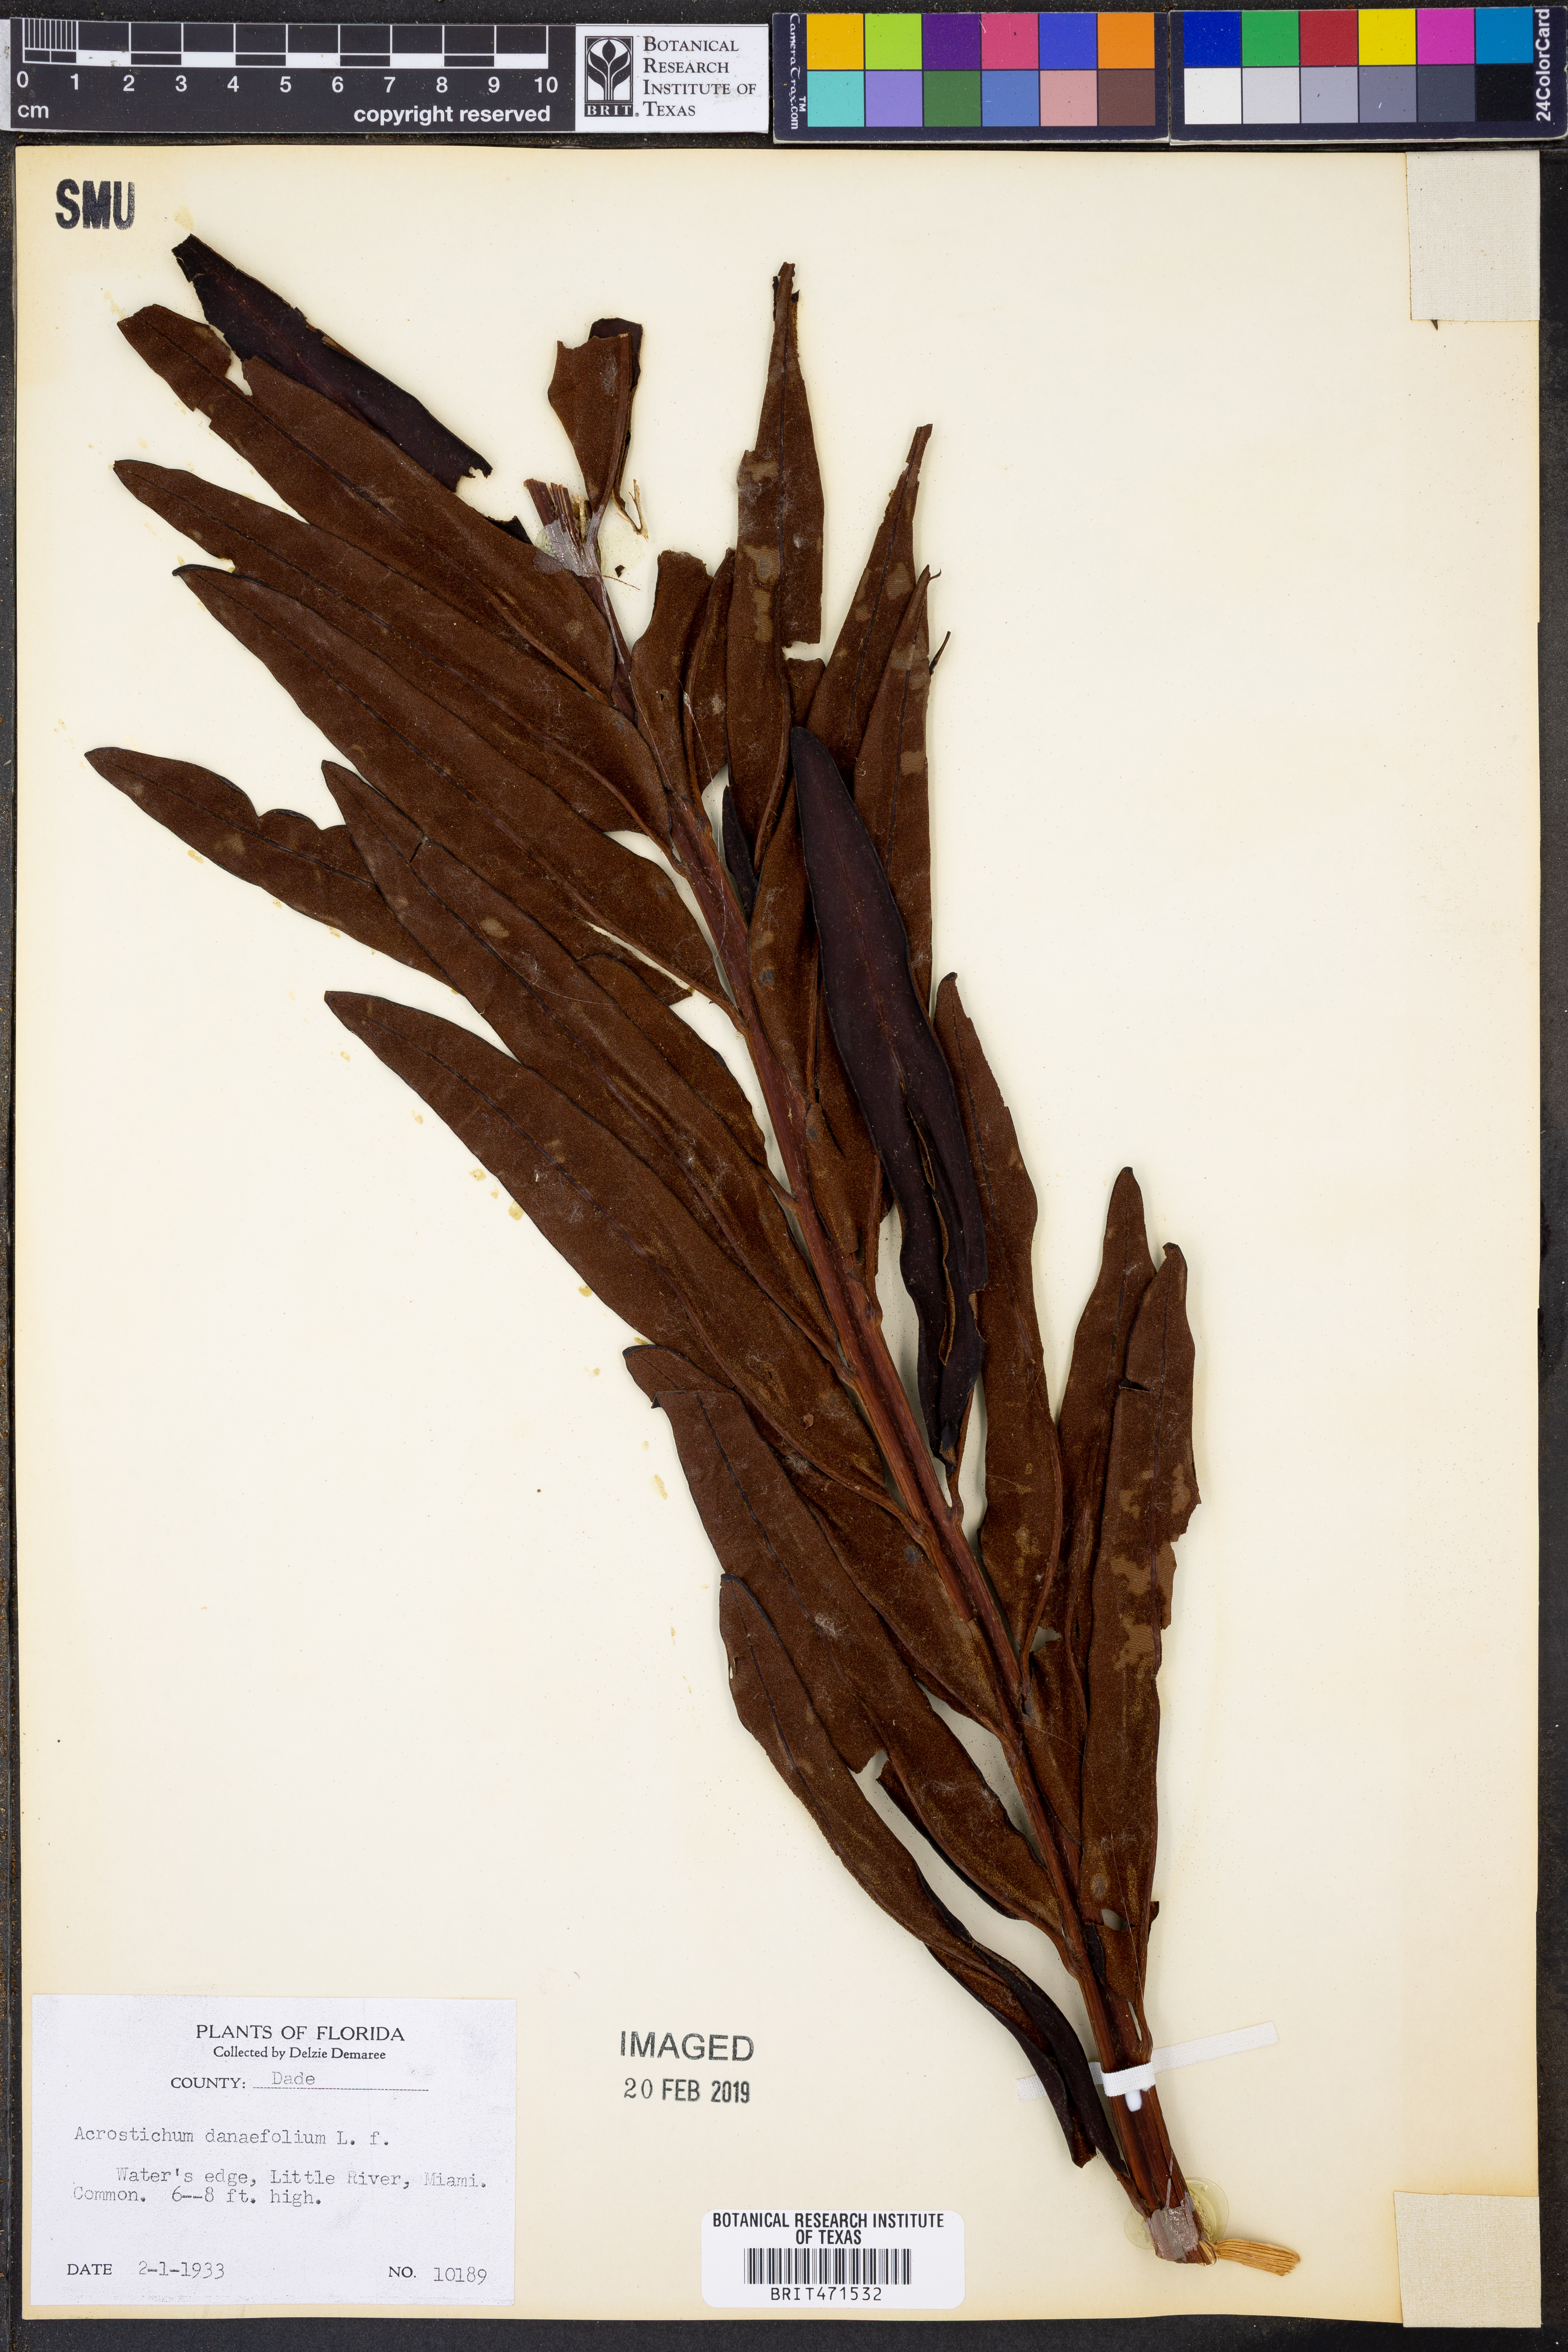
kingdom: Plantae
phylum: Tracheophyta
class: Polypodiopsida
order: Polypodiales
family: Pteridaceae
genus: Acrostichum
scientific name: Acrostichum danaeifolium
